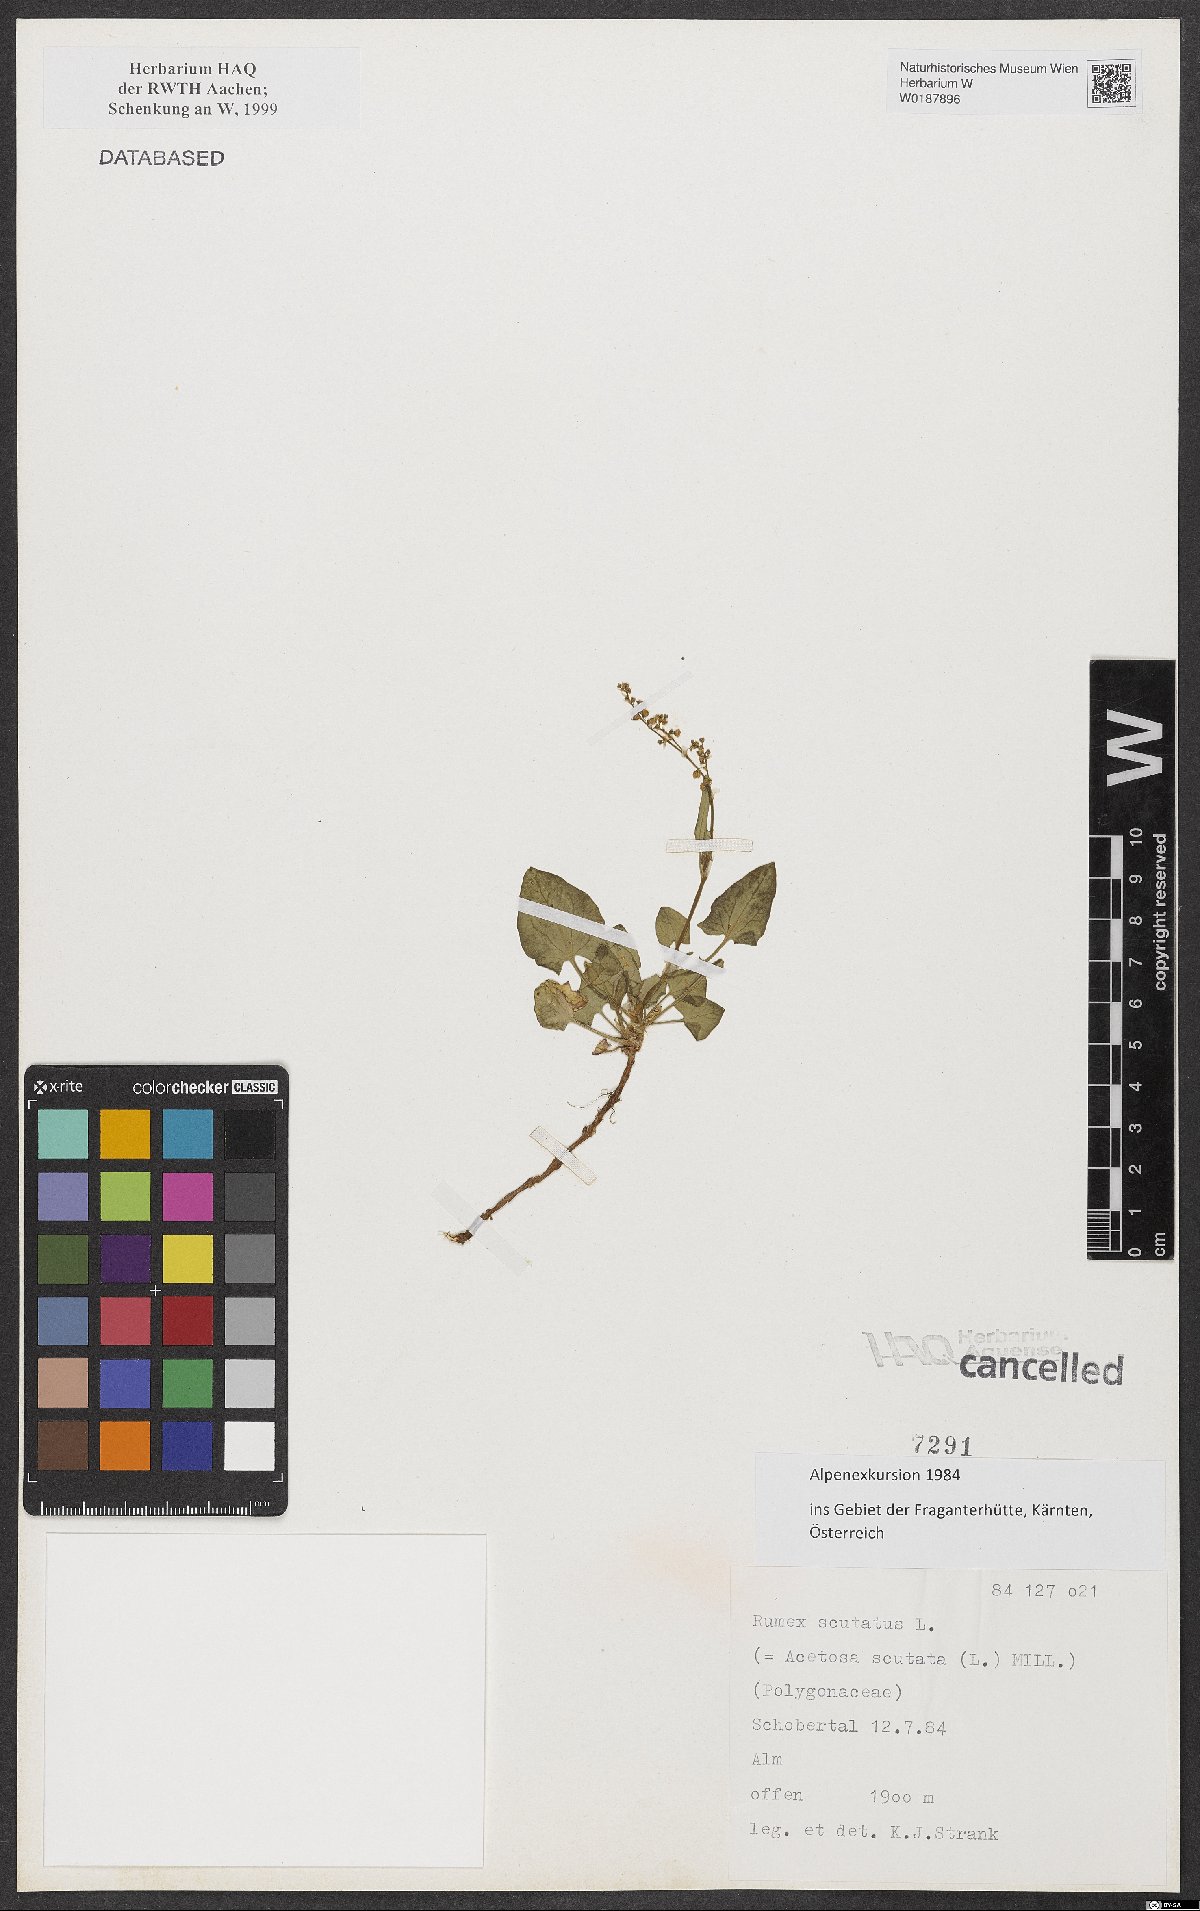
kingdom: Plantae
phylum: Tracheophyta
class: Magnoliopsida
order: Caryophyllales
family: Polygonaceae
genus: Rumex
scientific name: Rumex scutatus
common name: French sorrel
